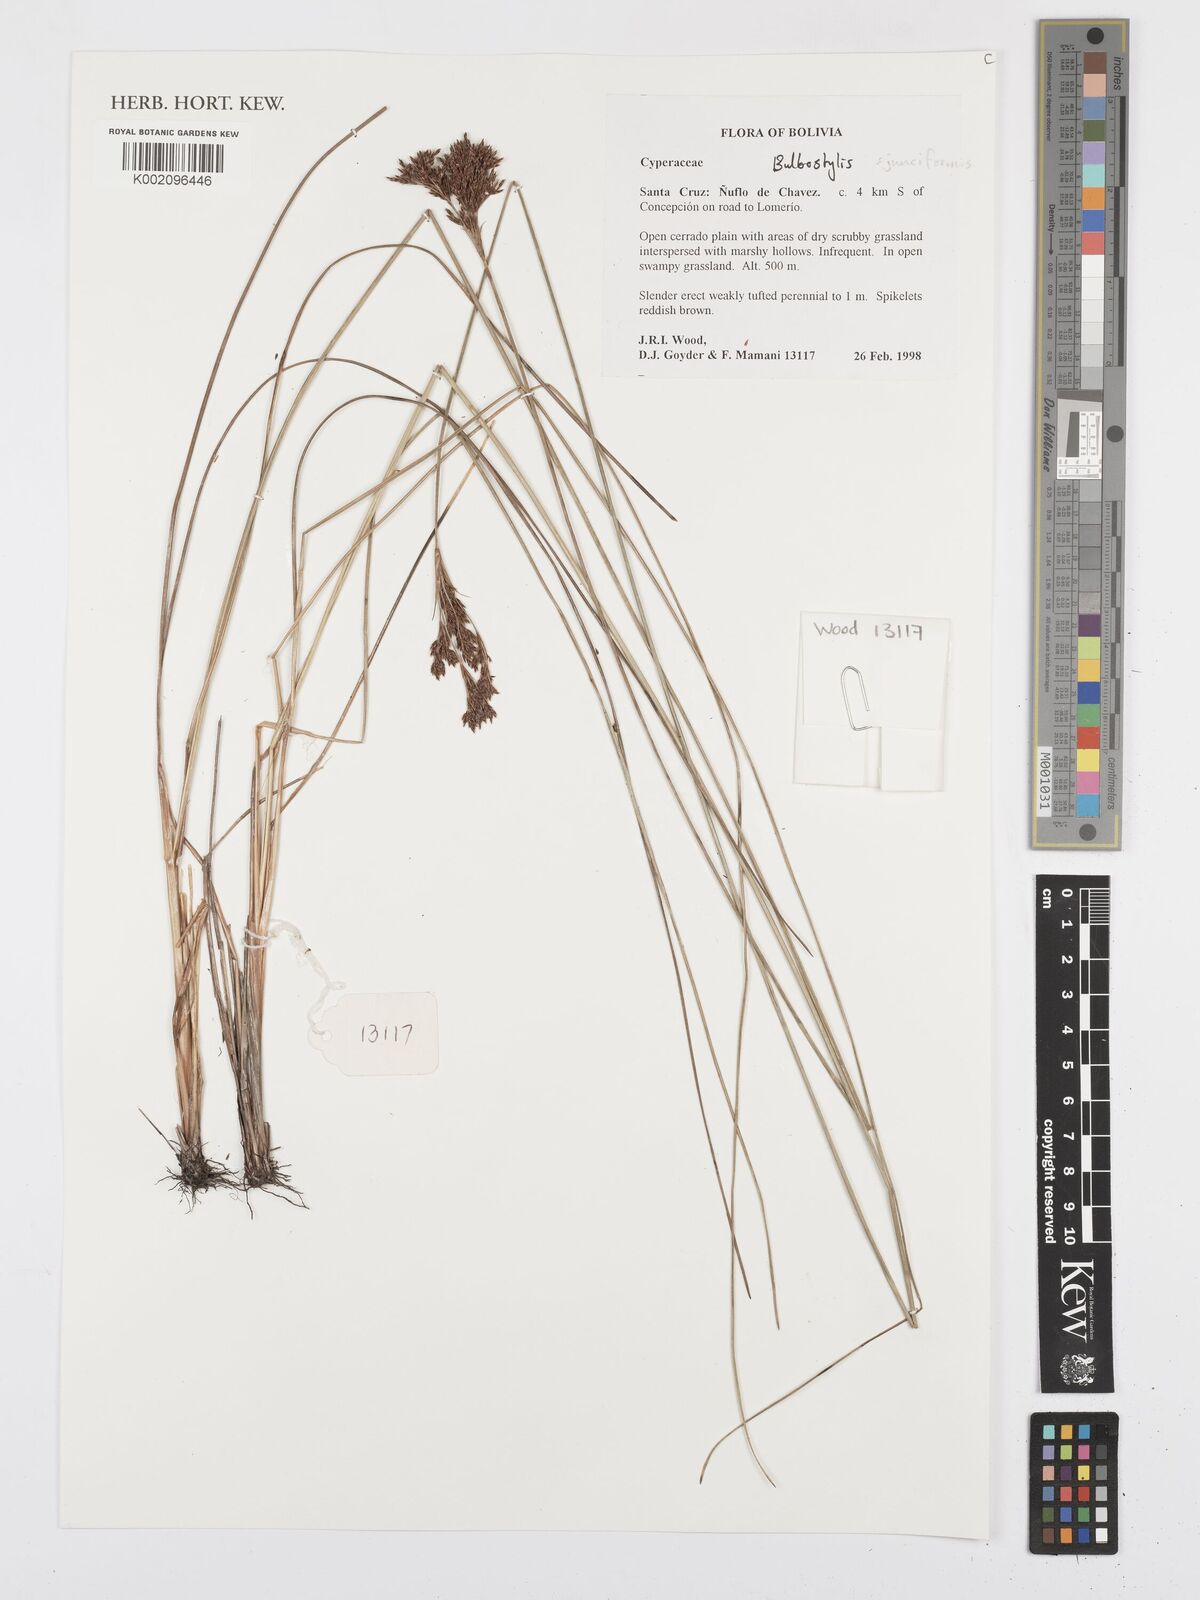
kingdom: Plantae
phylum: Tracheophyta
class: Liliopsida
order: Poales
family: Cyperaceae
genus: Bulbostylis
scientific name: Bulbostylis junciformis
